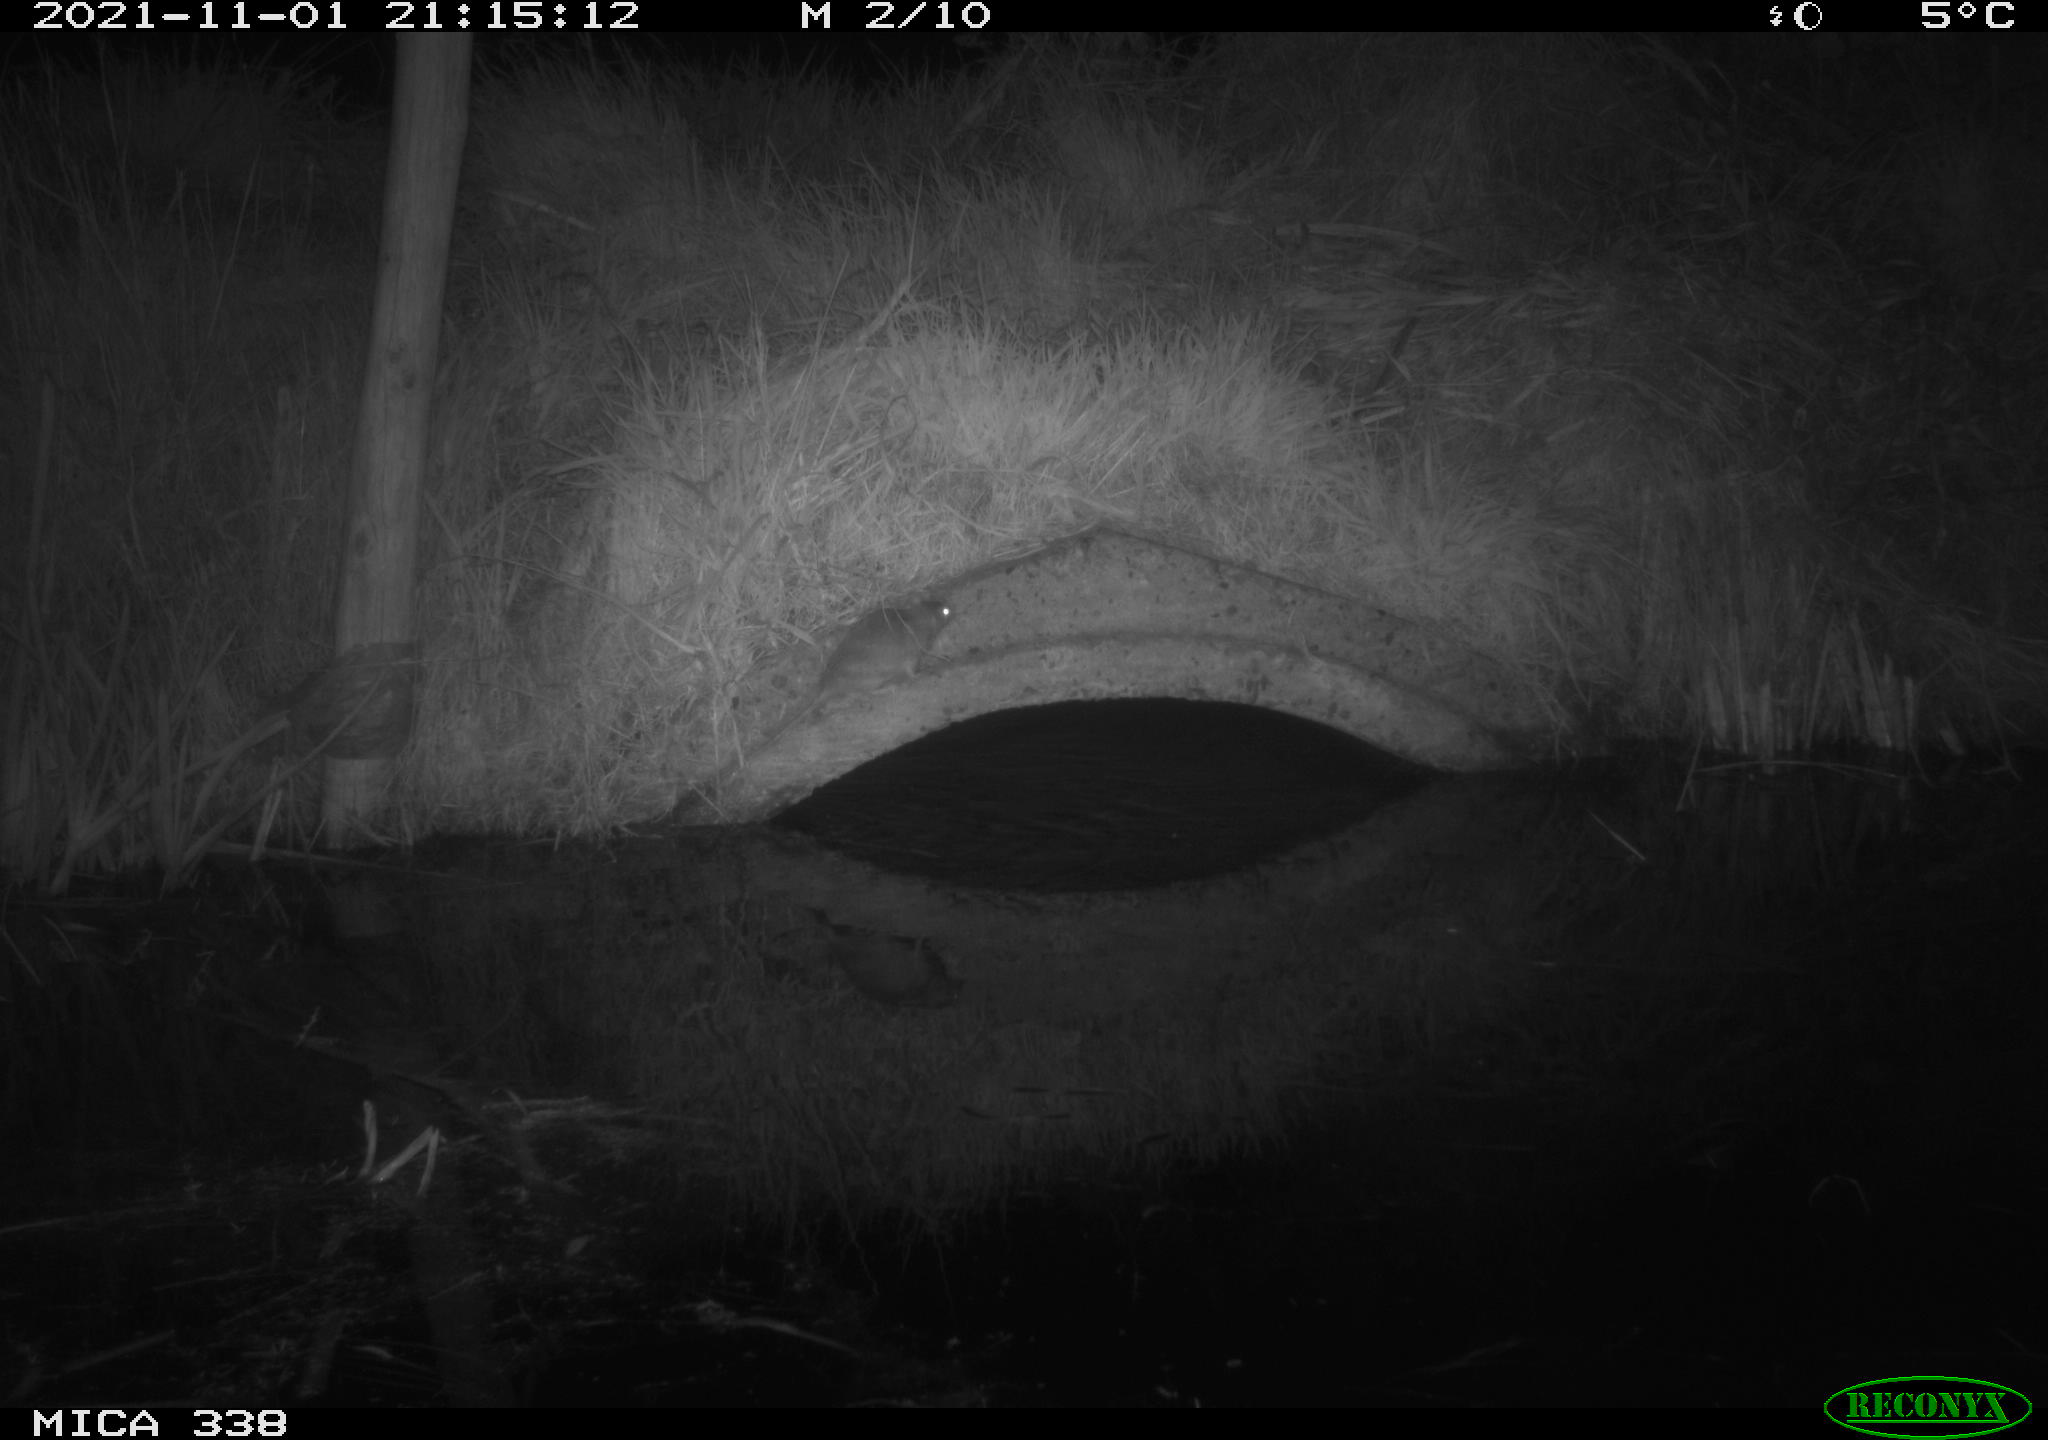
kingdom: Animalia
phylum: Chordata
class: Mammalia
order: Rodentia
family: Muridae
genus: Rattus
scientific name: Rattus norvegicus
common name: Brown rat
